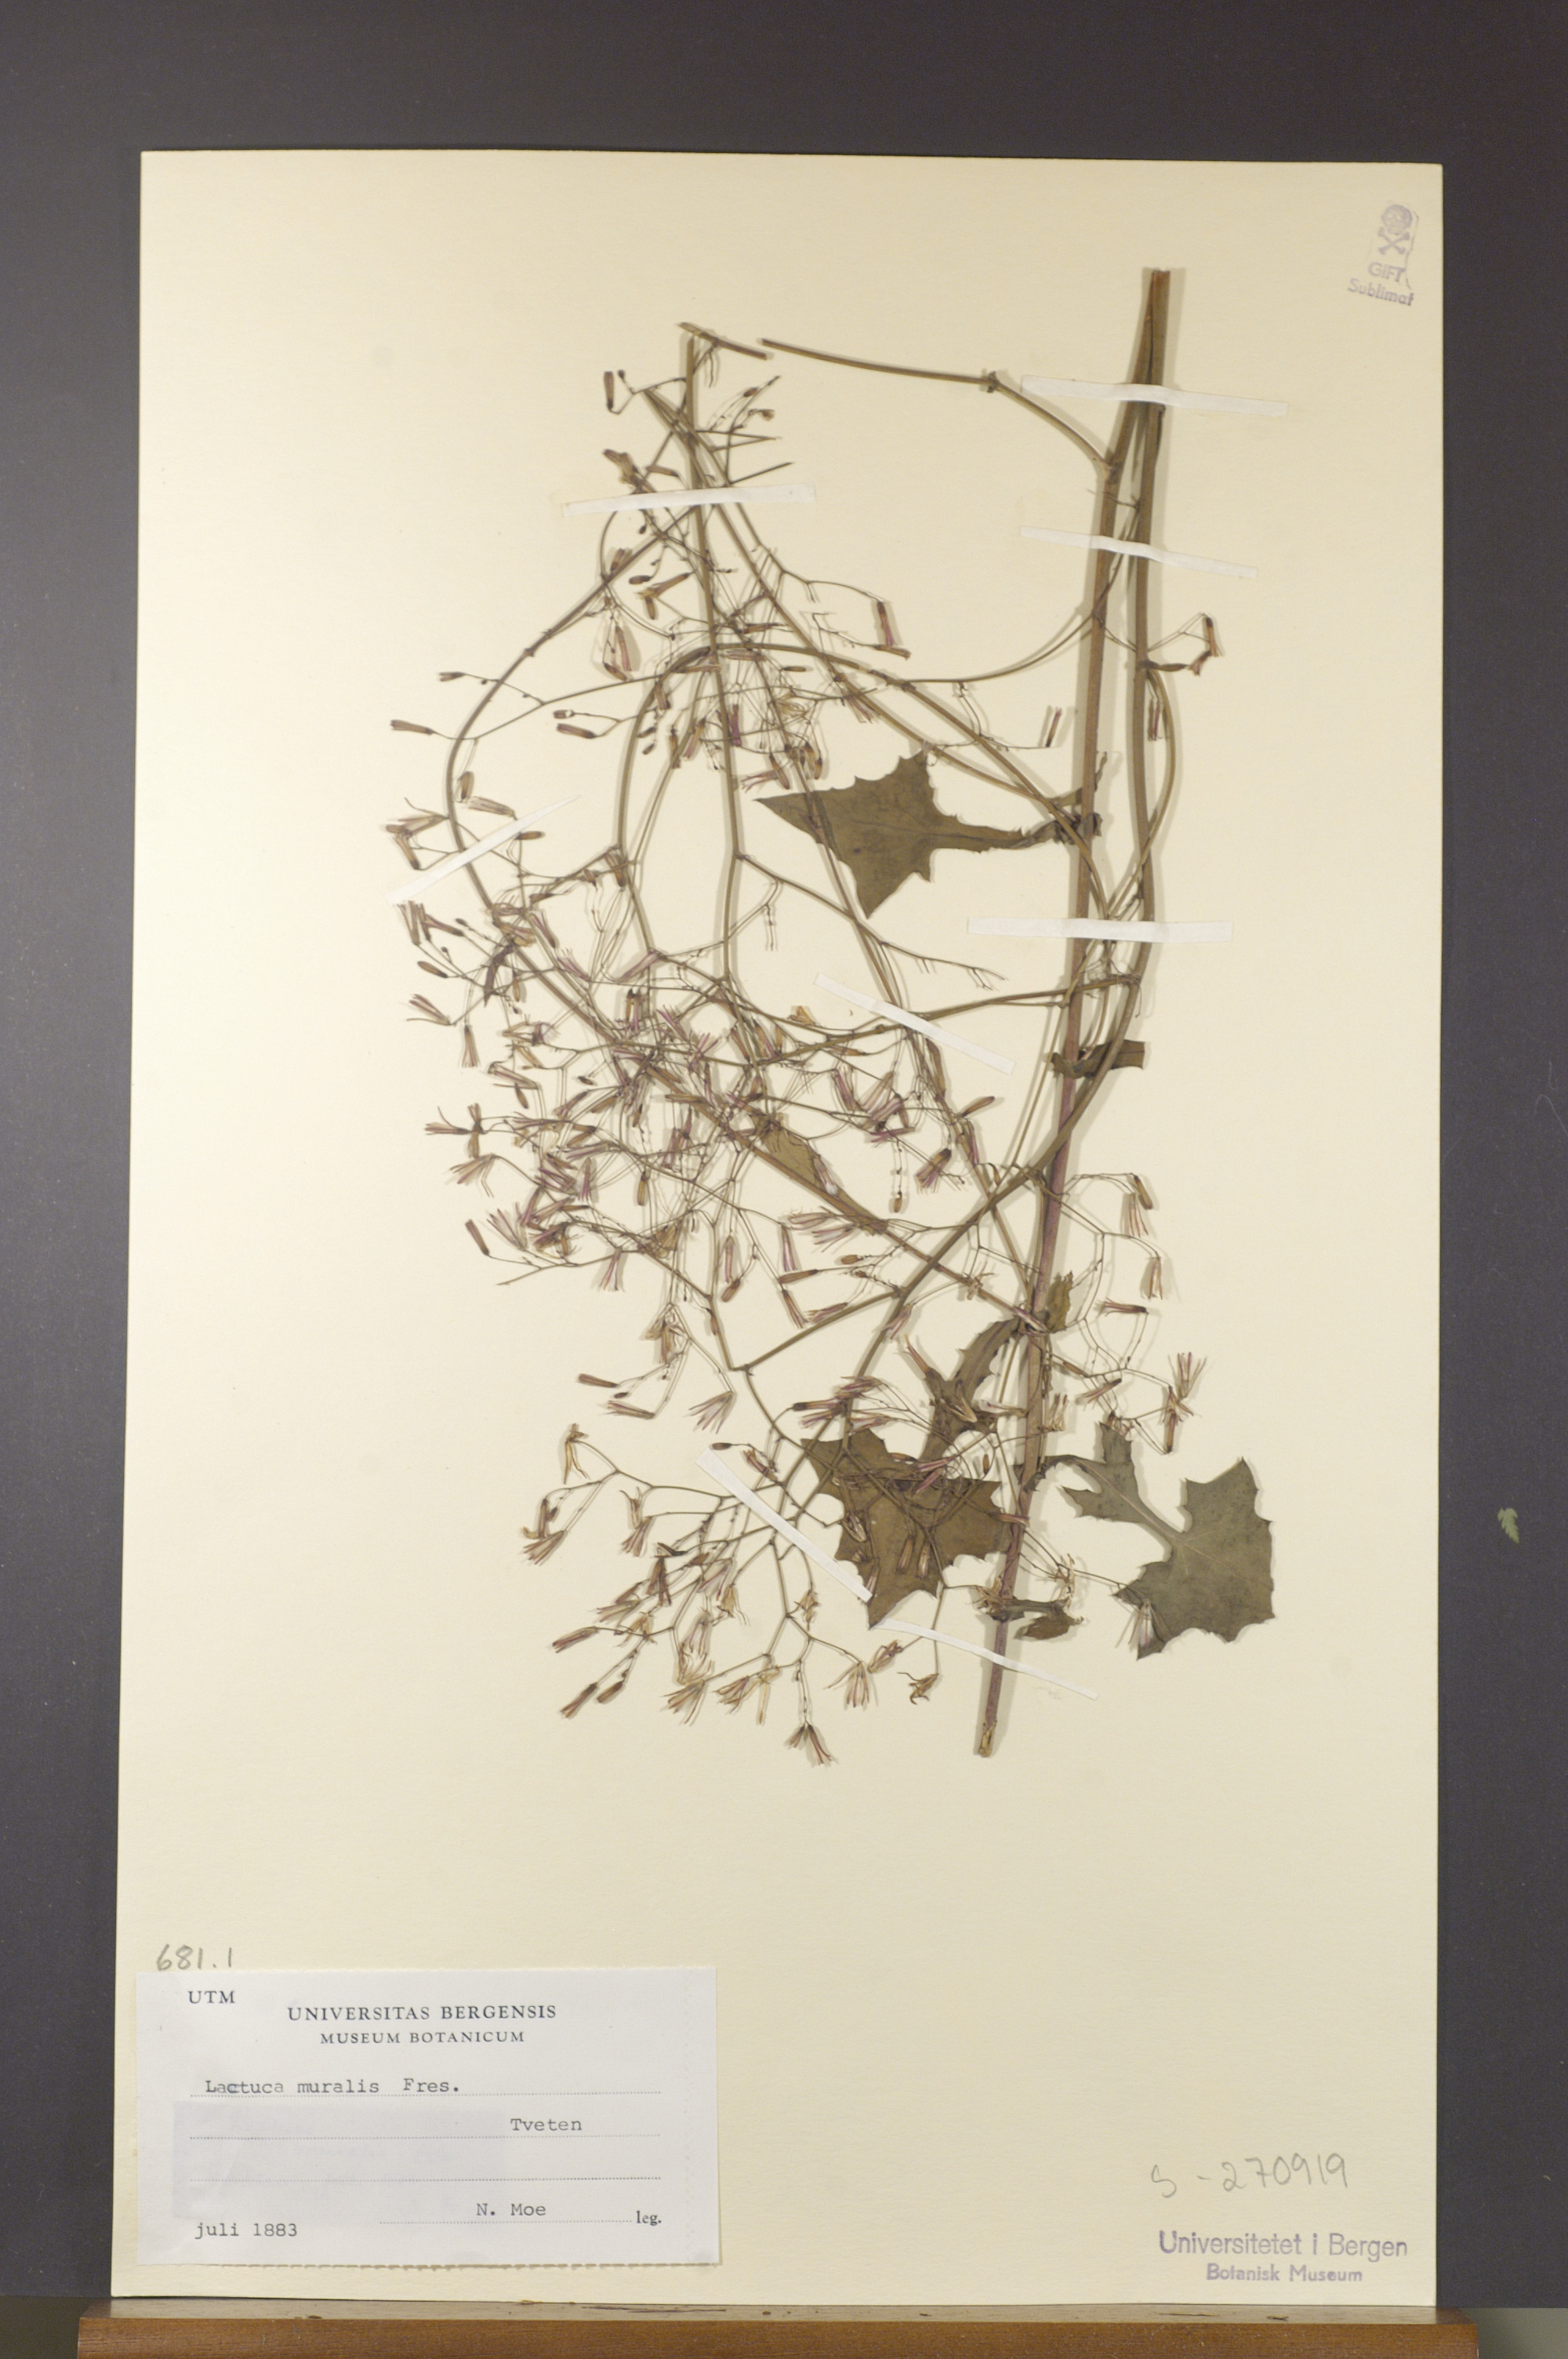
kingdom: Plantae
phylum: Tracheophyta
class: Magnoliopsida
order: Asterales
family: Asteraceae
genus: Mycelis
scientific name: Mycelis muralis
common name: Wall lettuce
